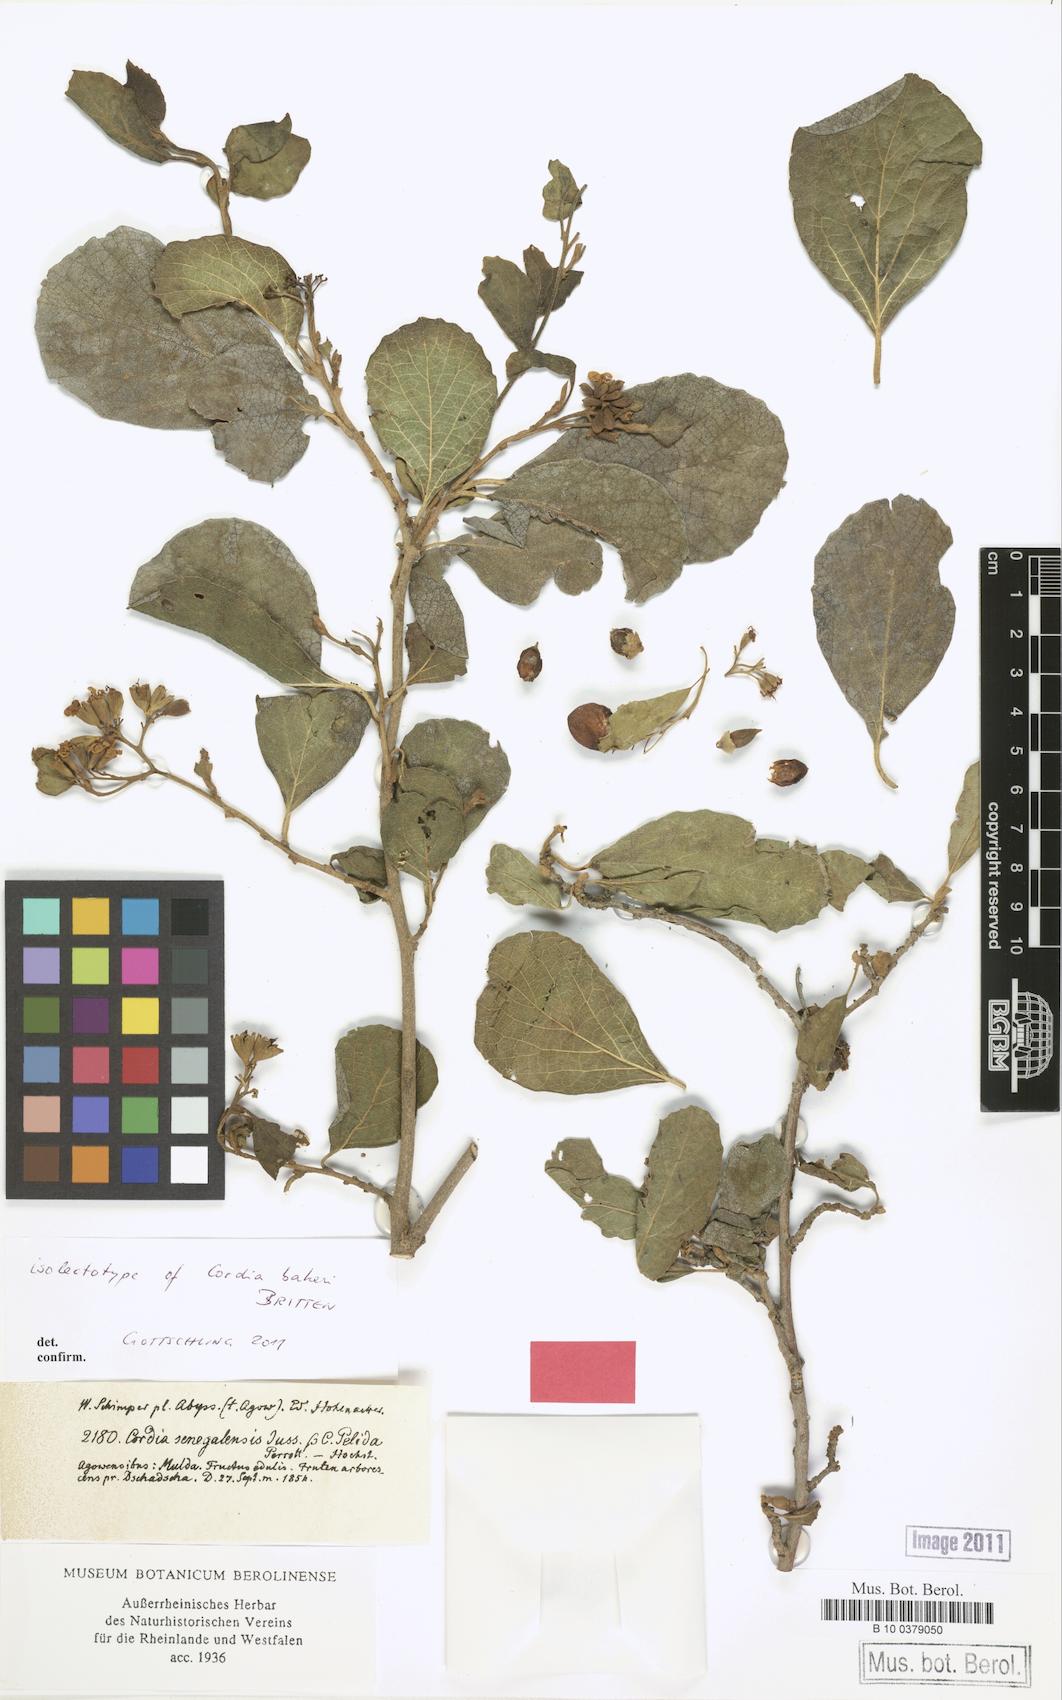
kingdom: Plantae
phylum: Tracheophyta
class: Magnoliopsida
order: Boraginales
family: Cordiaceae
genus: Cordia
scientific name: Cordia monoica
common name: Snot berry
